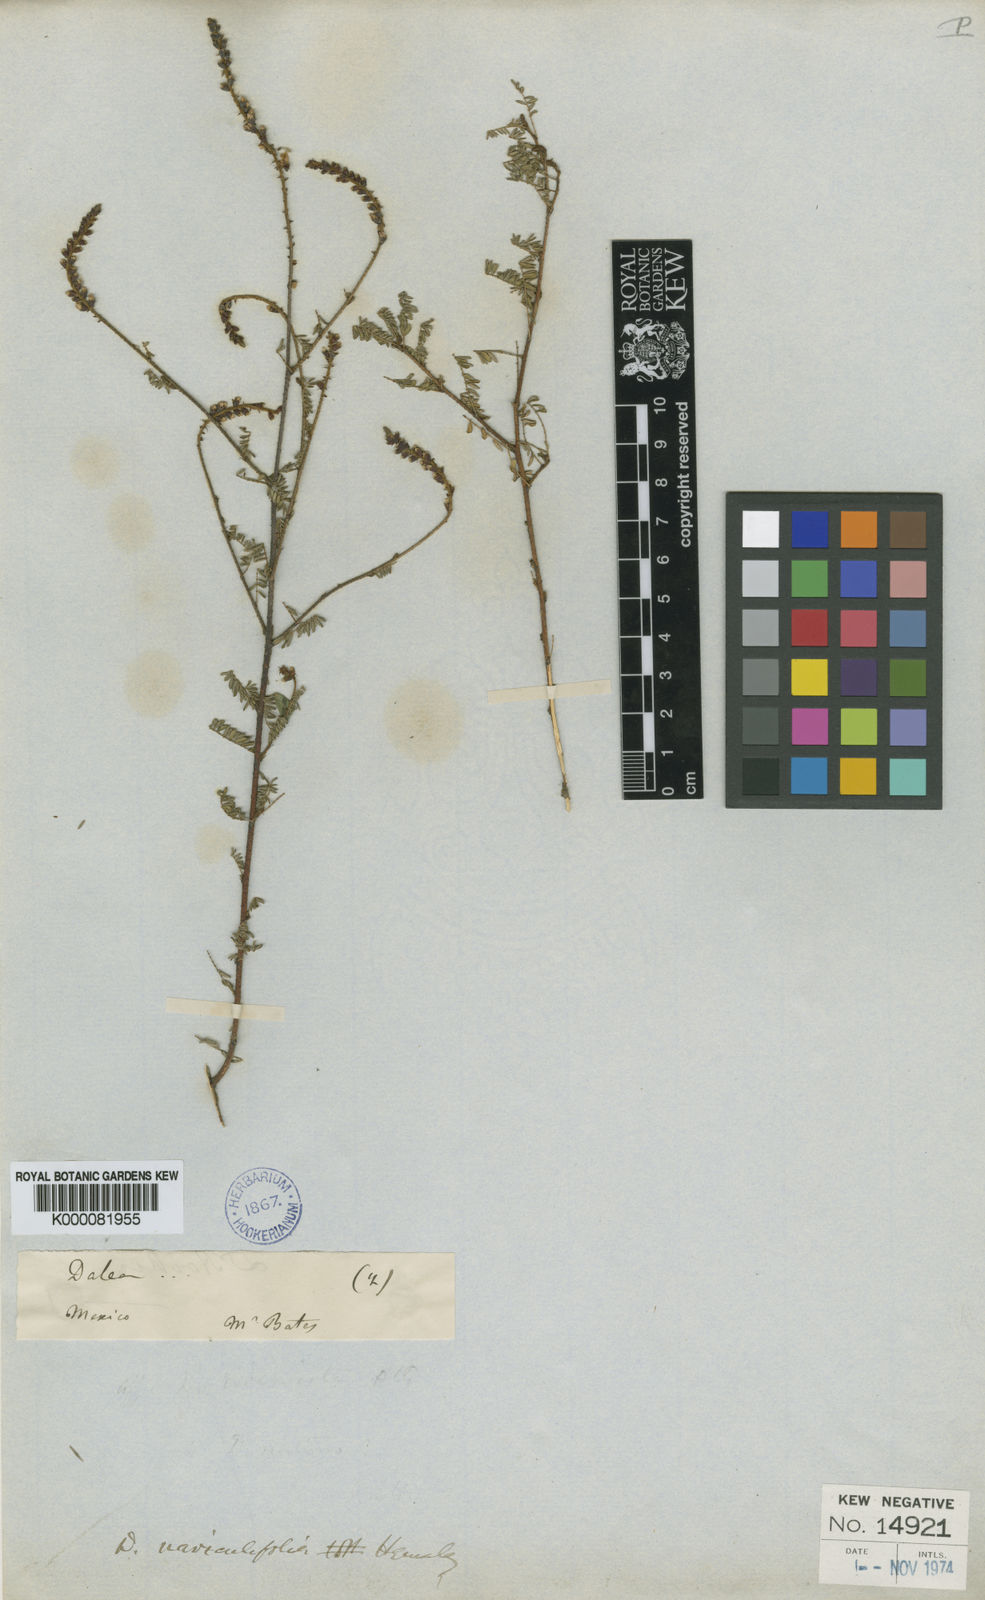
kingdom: Plantae
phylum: Tracheophyta
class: Magnoliopsida
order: Fabales
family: Fabaceae
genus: Dalea
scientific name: Dalea bicolor
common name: Silver prairie-clover
